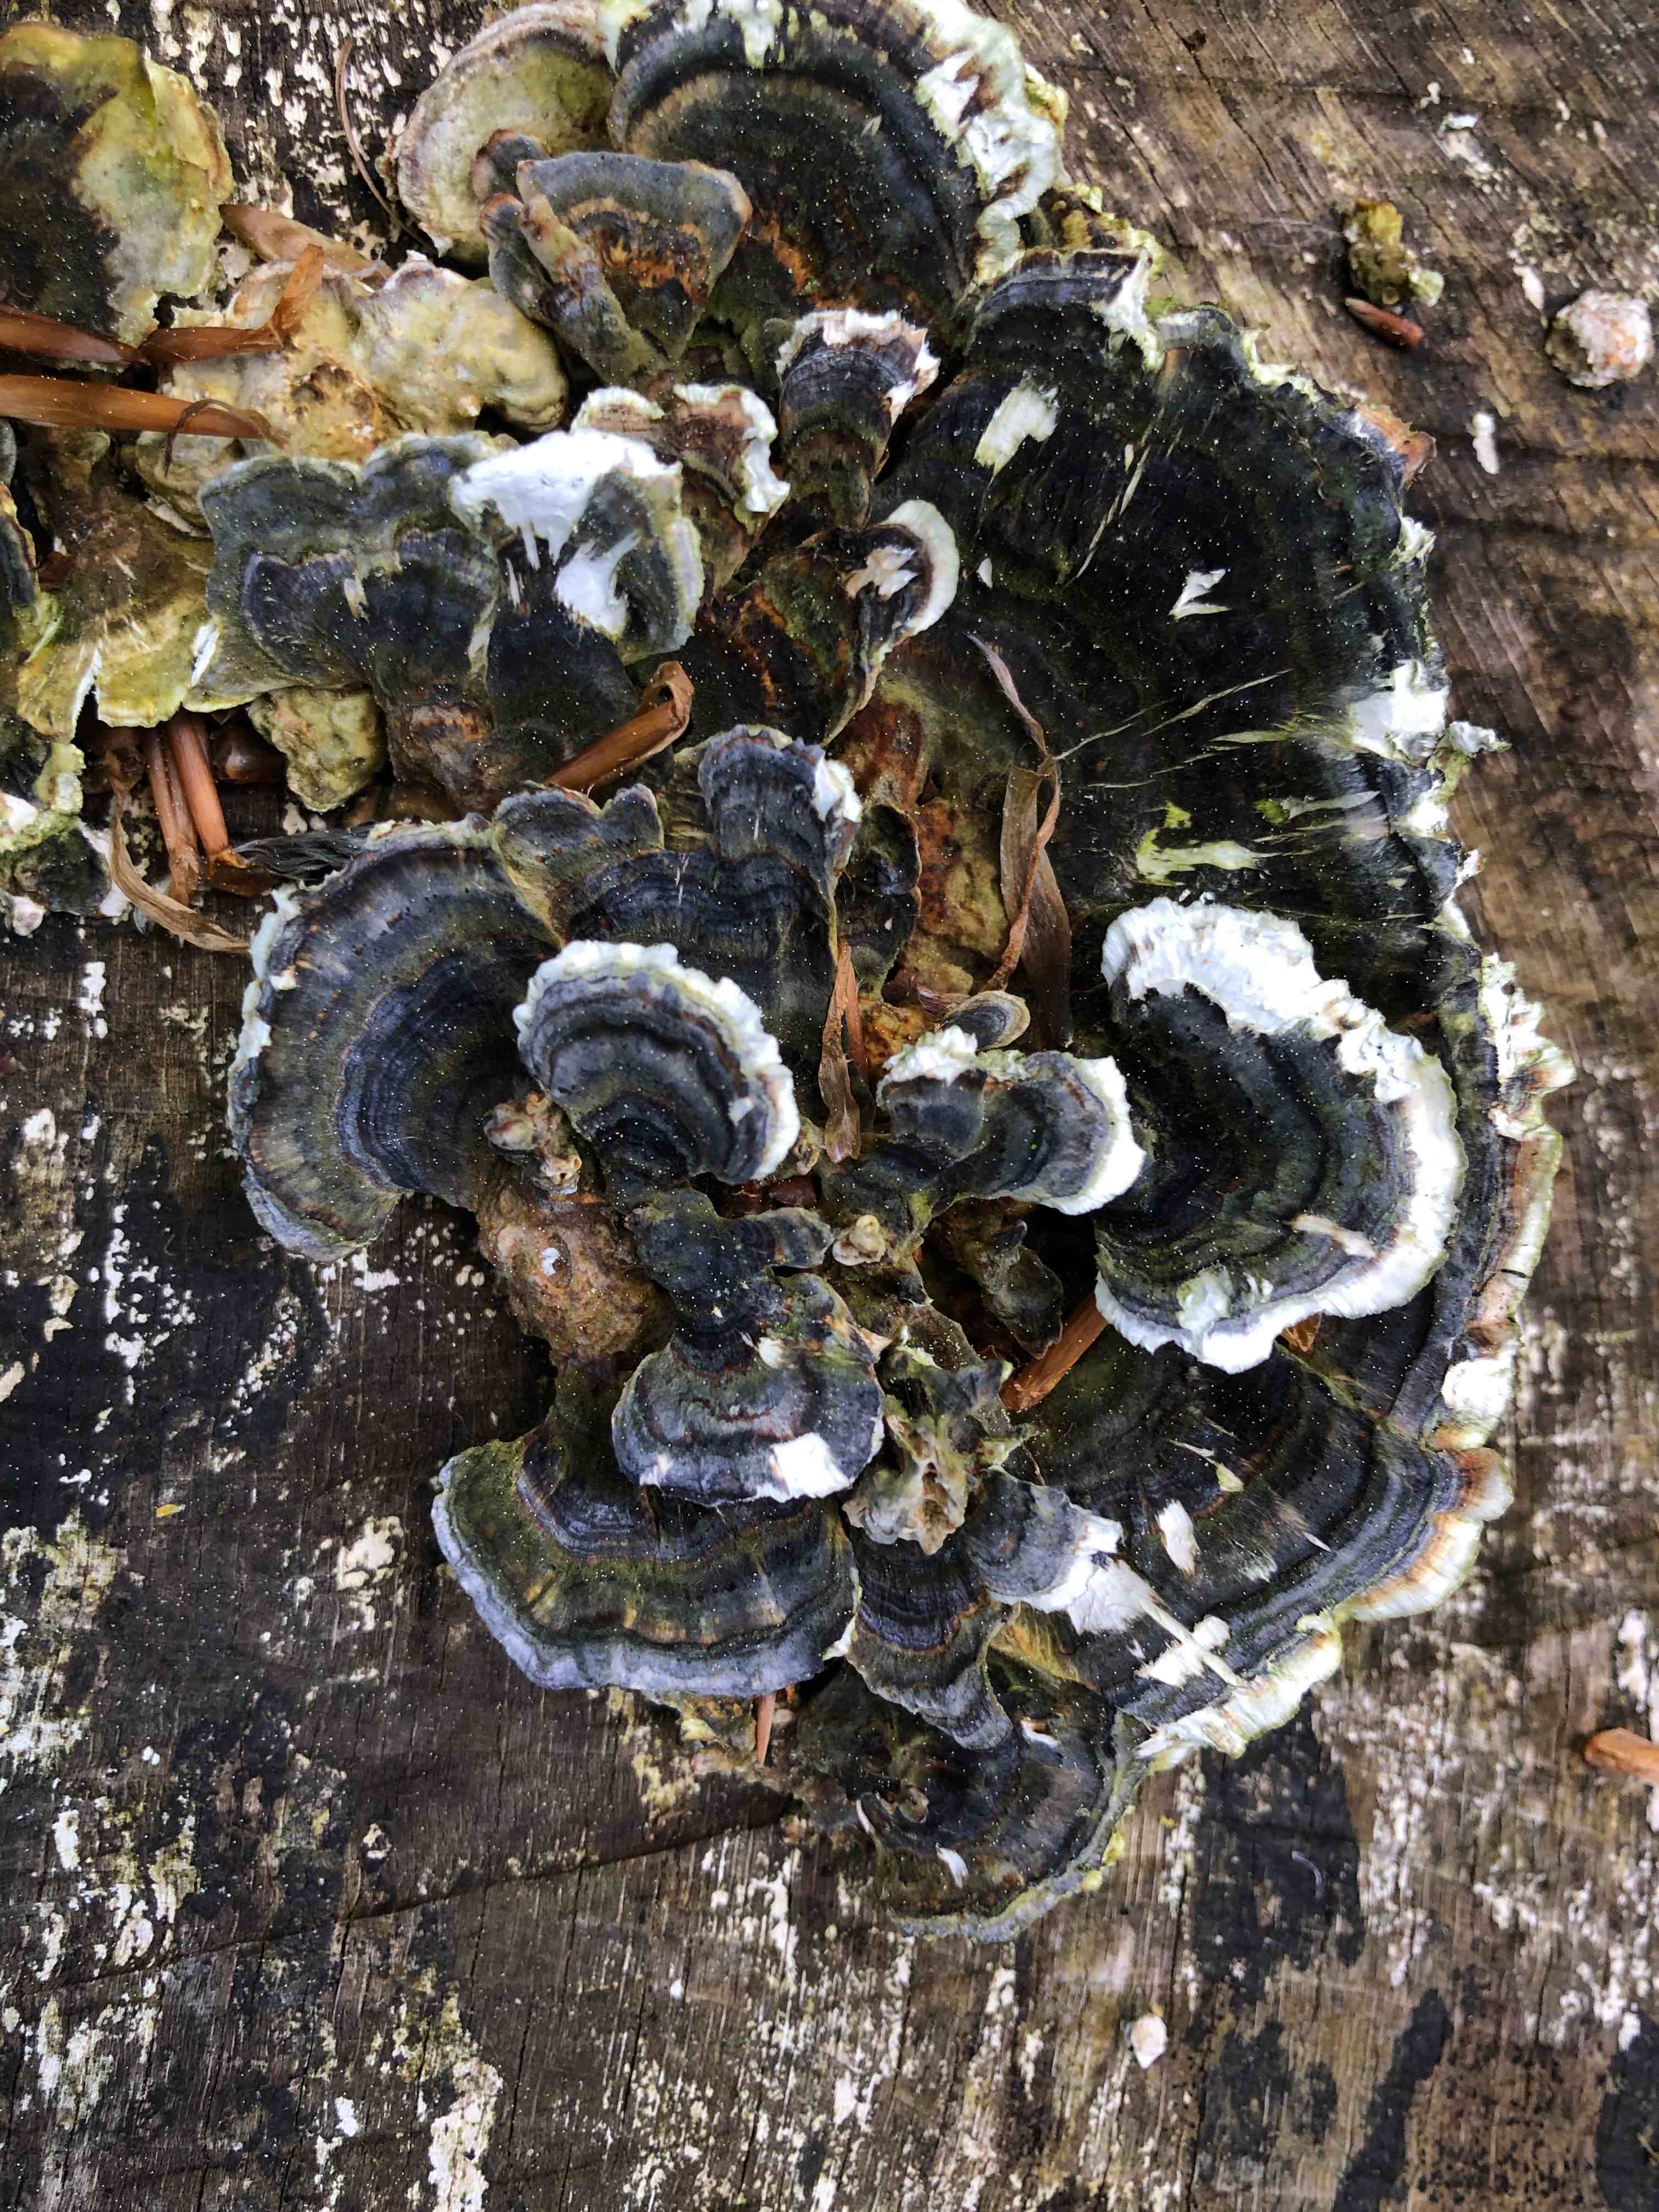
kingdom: Fungi
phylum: Basidiomycota
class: Agaricomycetes
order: Polyporales
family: Polyporaceae
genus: Trametes
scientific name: Trametes versicolor
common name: broget læderporesvamp
